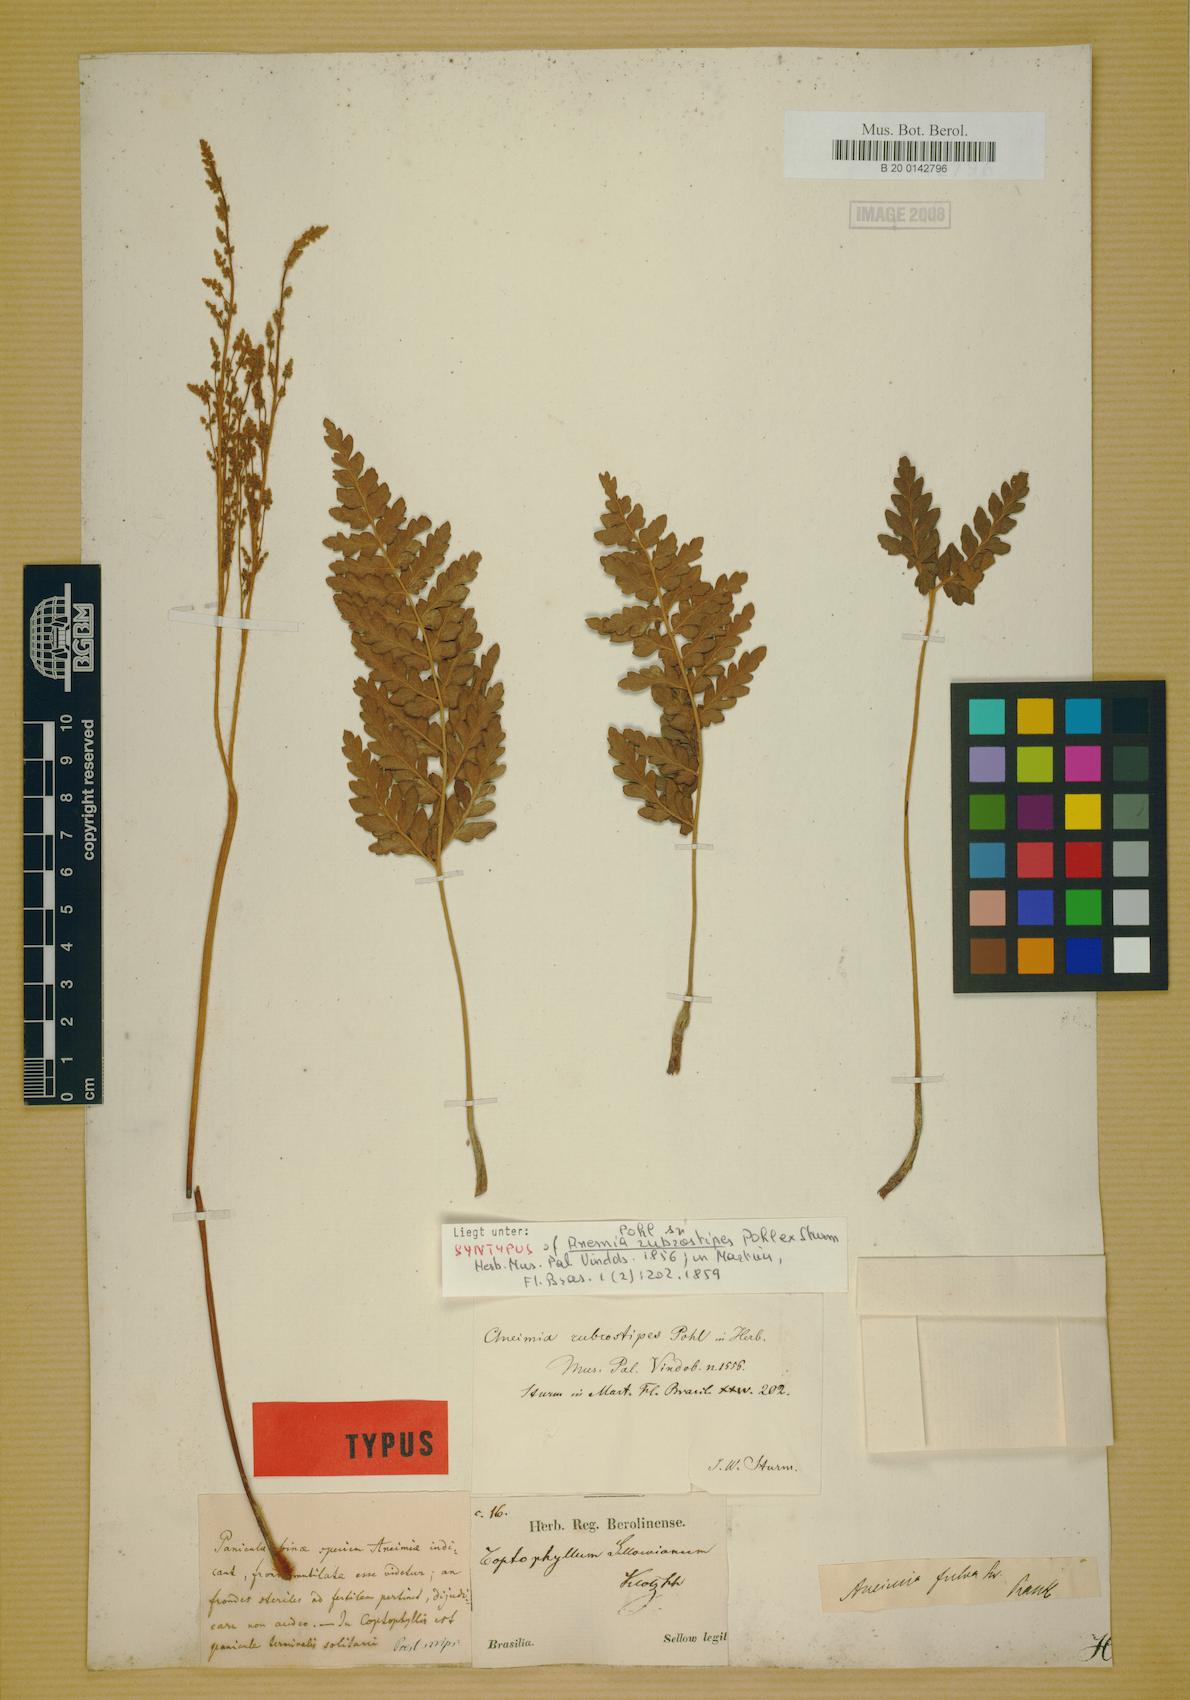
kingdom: Plantae
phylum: Tracheophyta
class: Polypodiopsida
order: Schizaeales
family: Anemiaceae
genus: Anemia
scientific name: Anemia ferruginea
